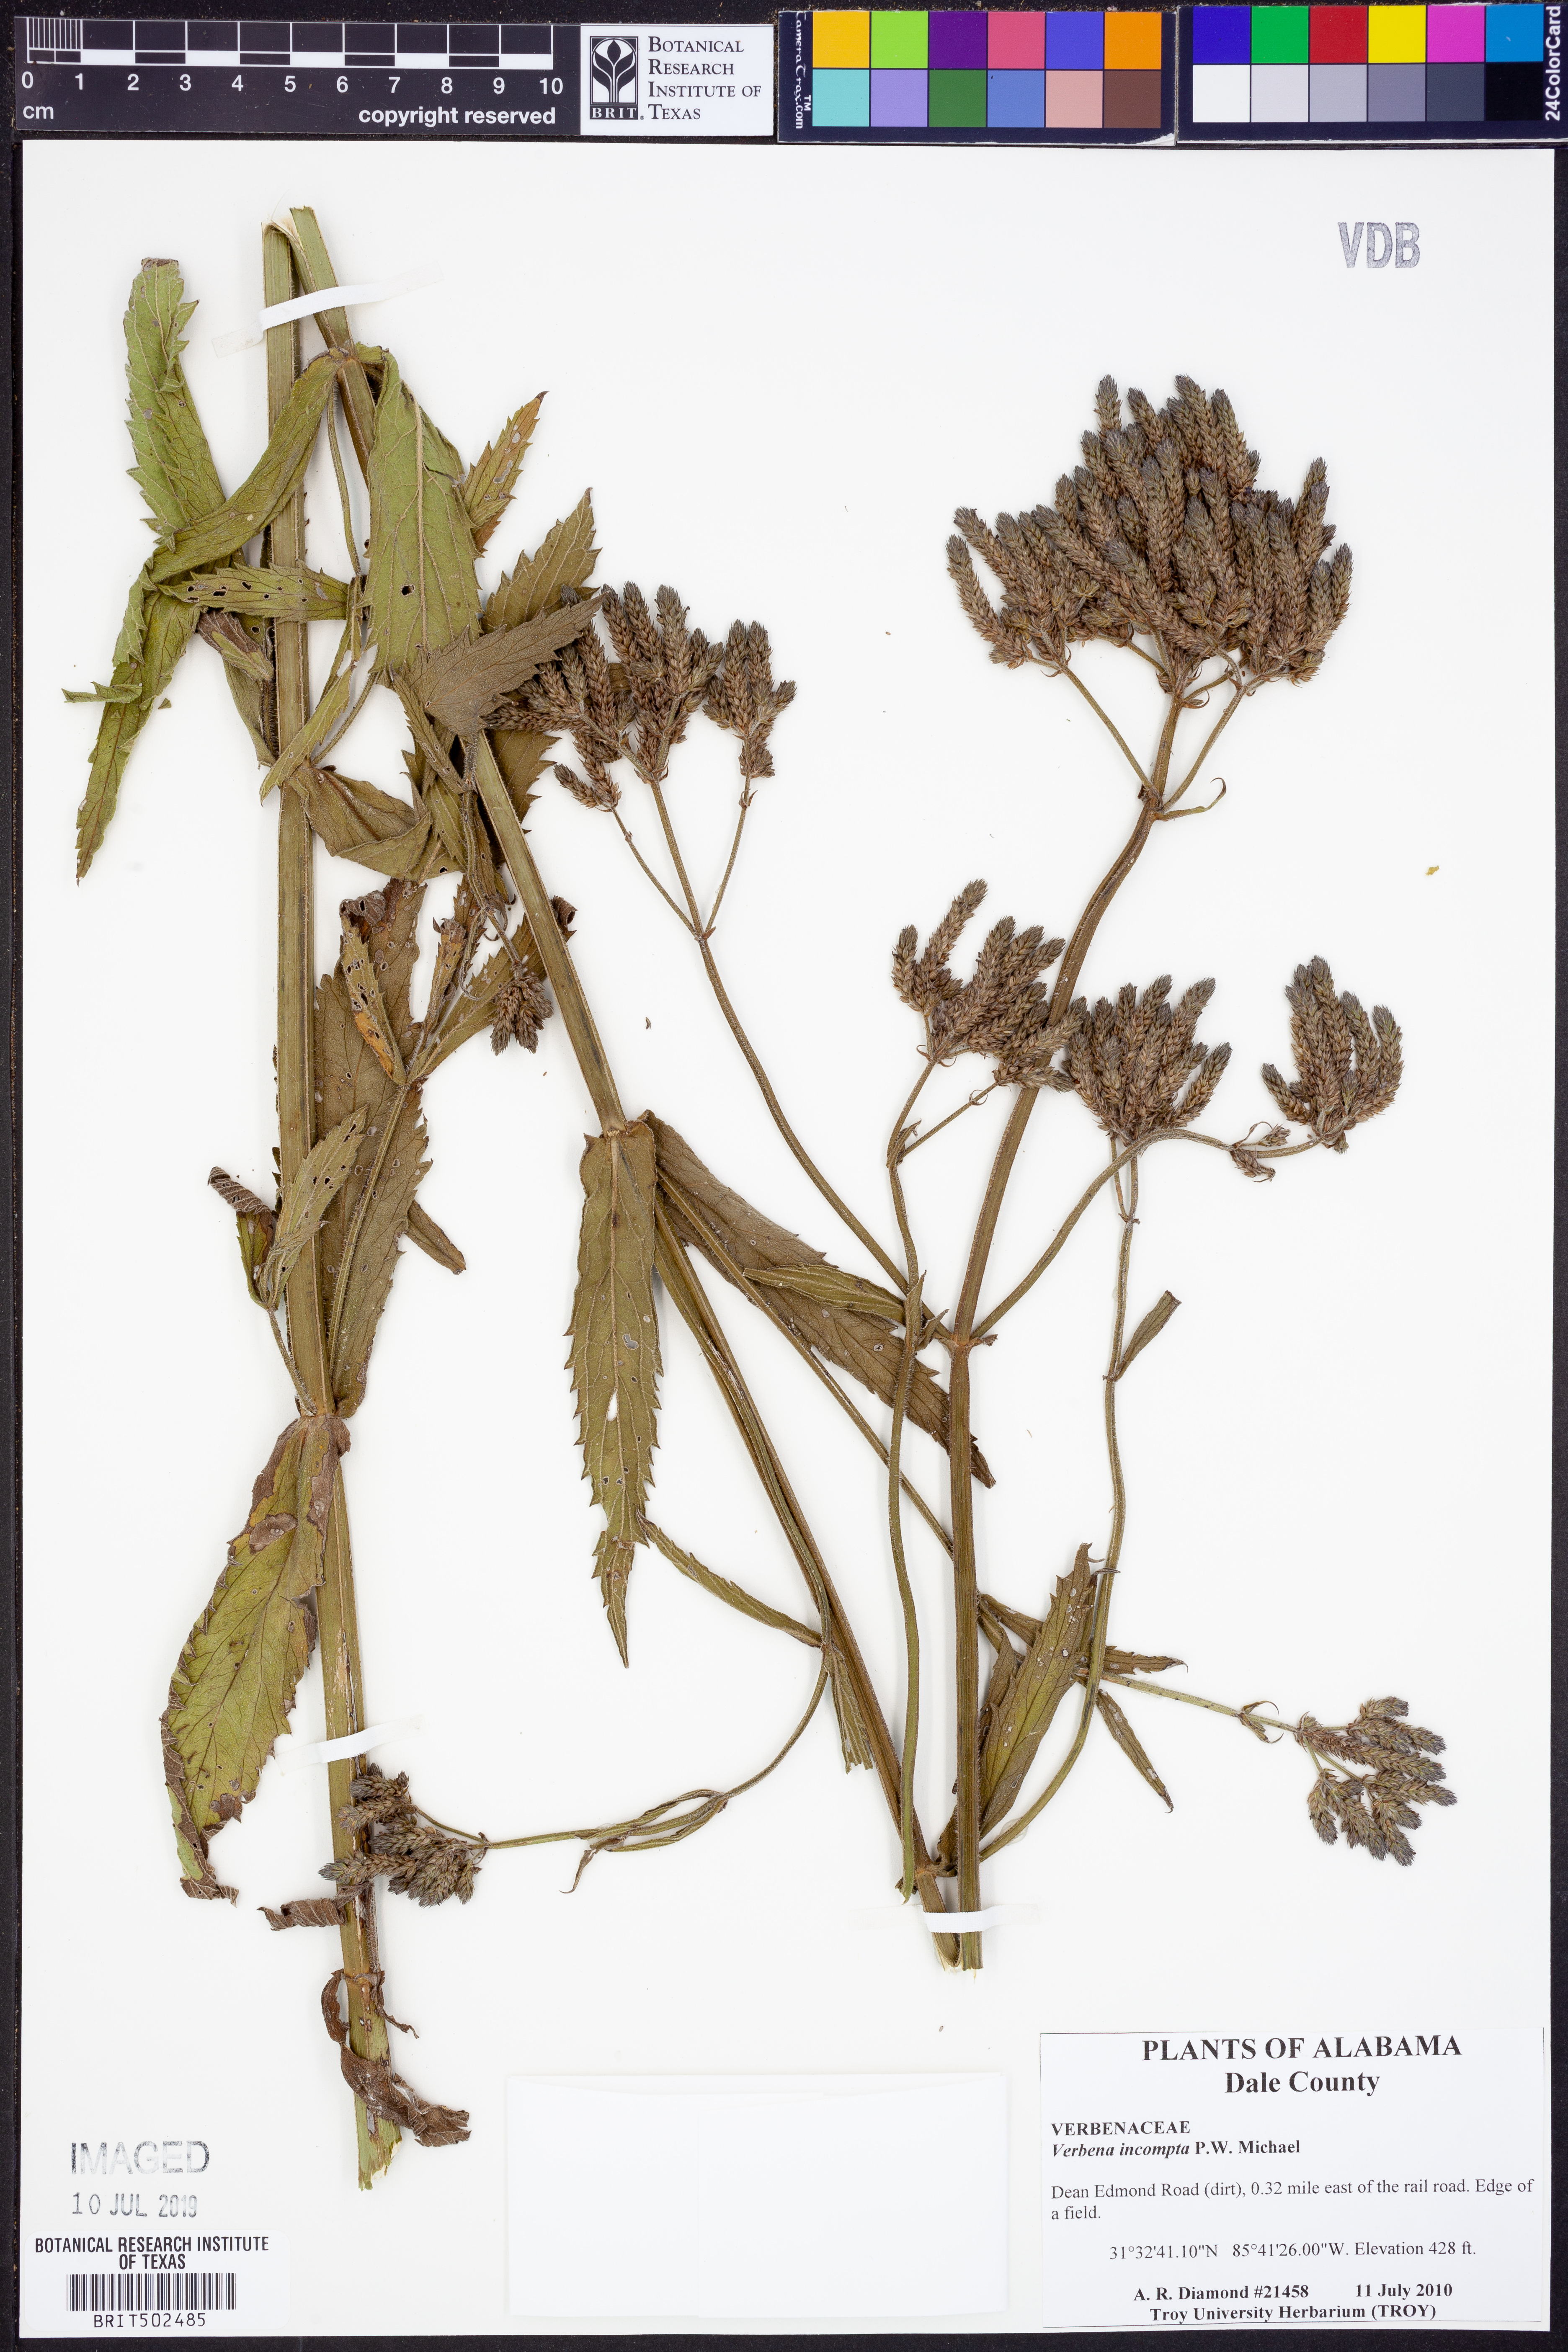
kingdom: Plantae
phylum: Tracheophyta
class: Magnoliopsida
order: Lamiales
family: Verbenaceae
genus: Verbena
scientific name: Verbena incompta
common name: Purpletop vervain
